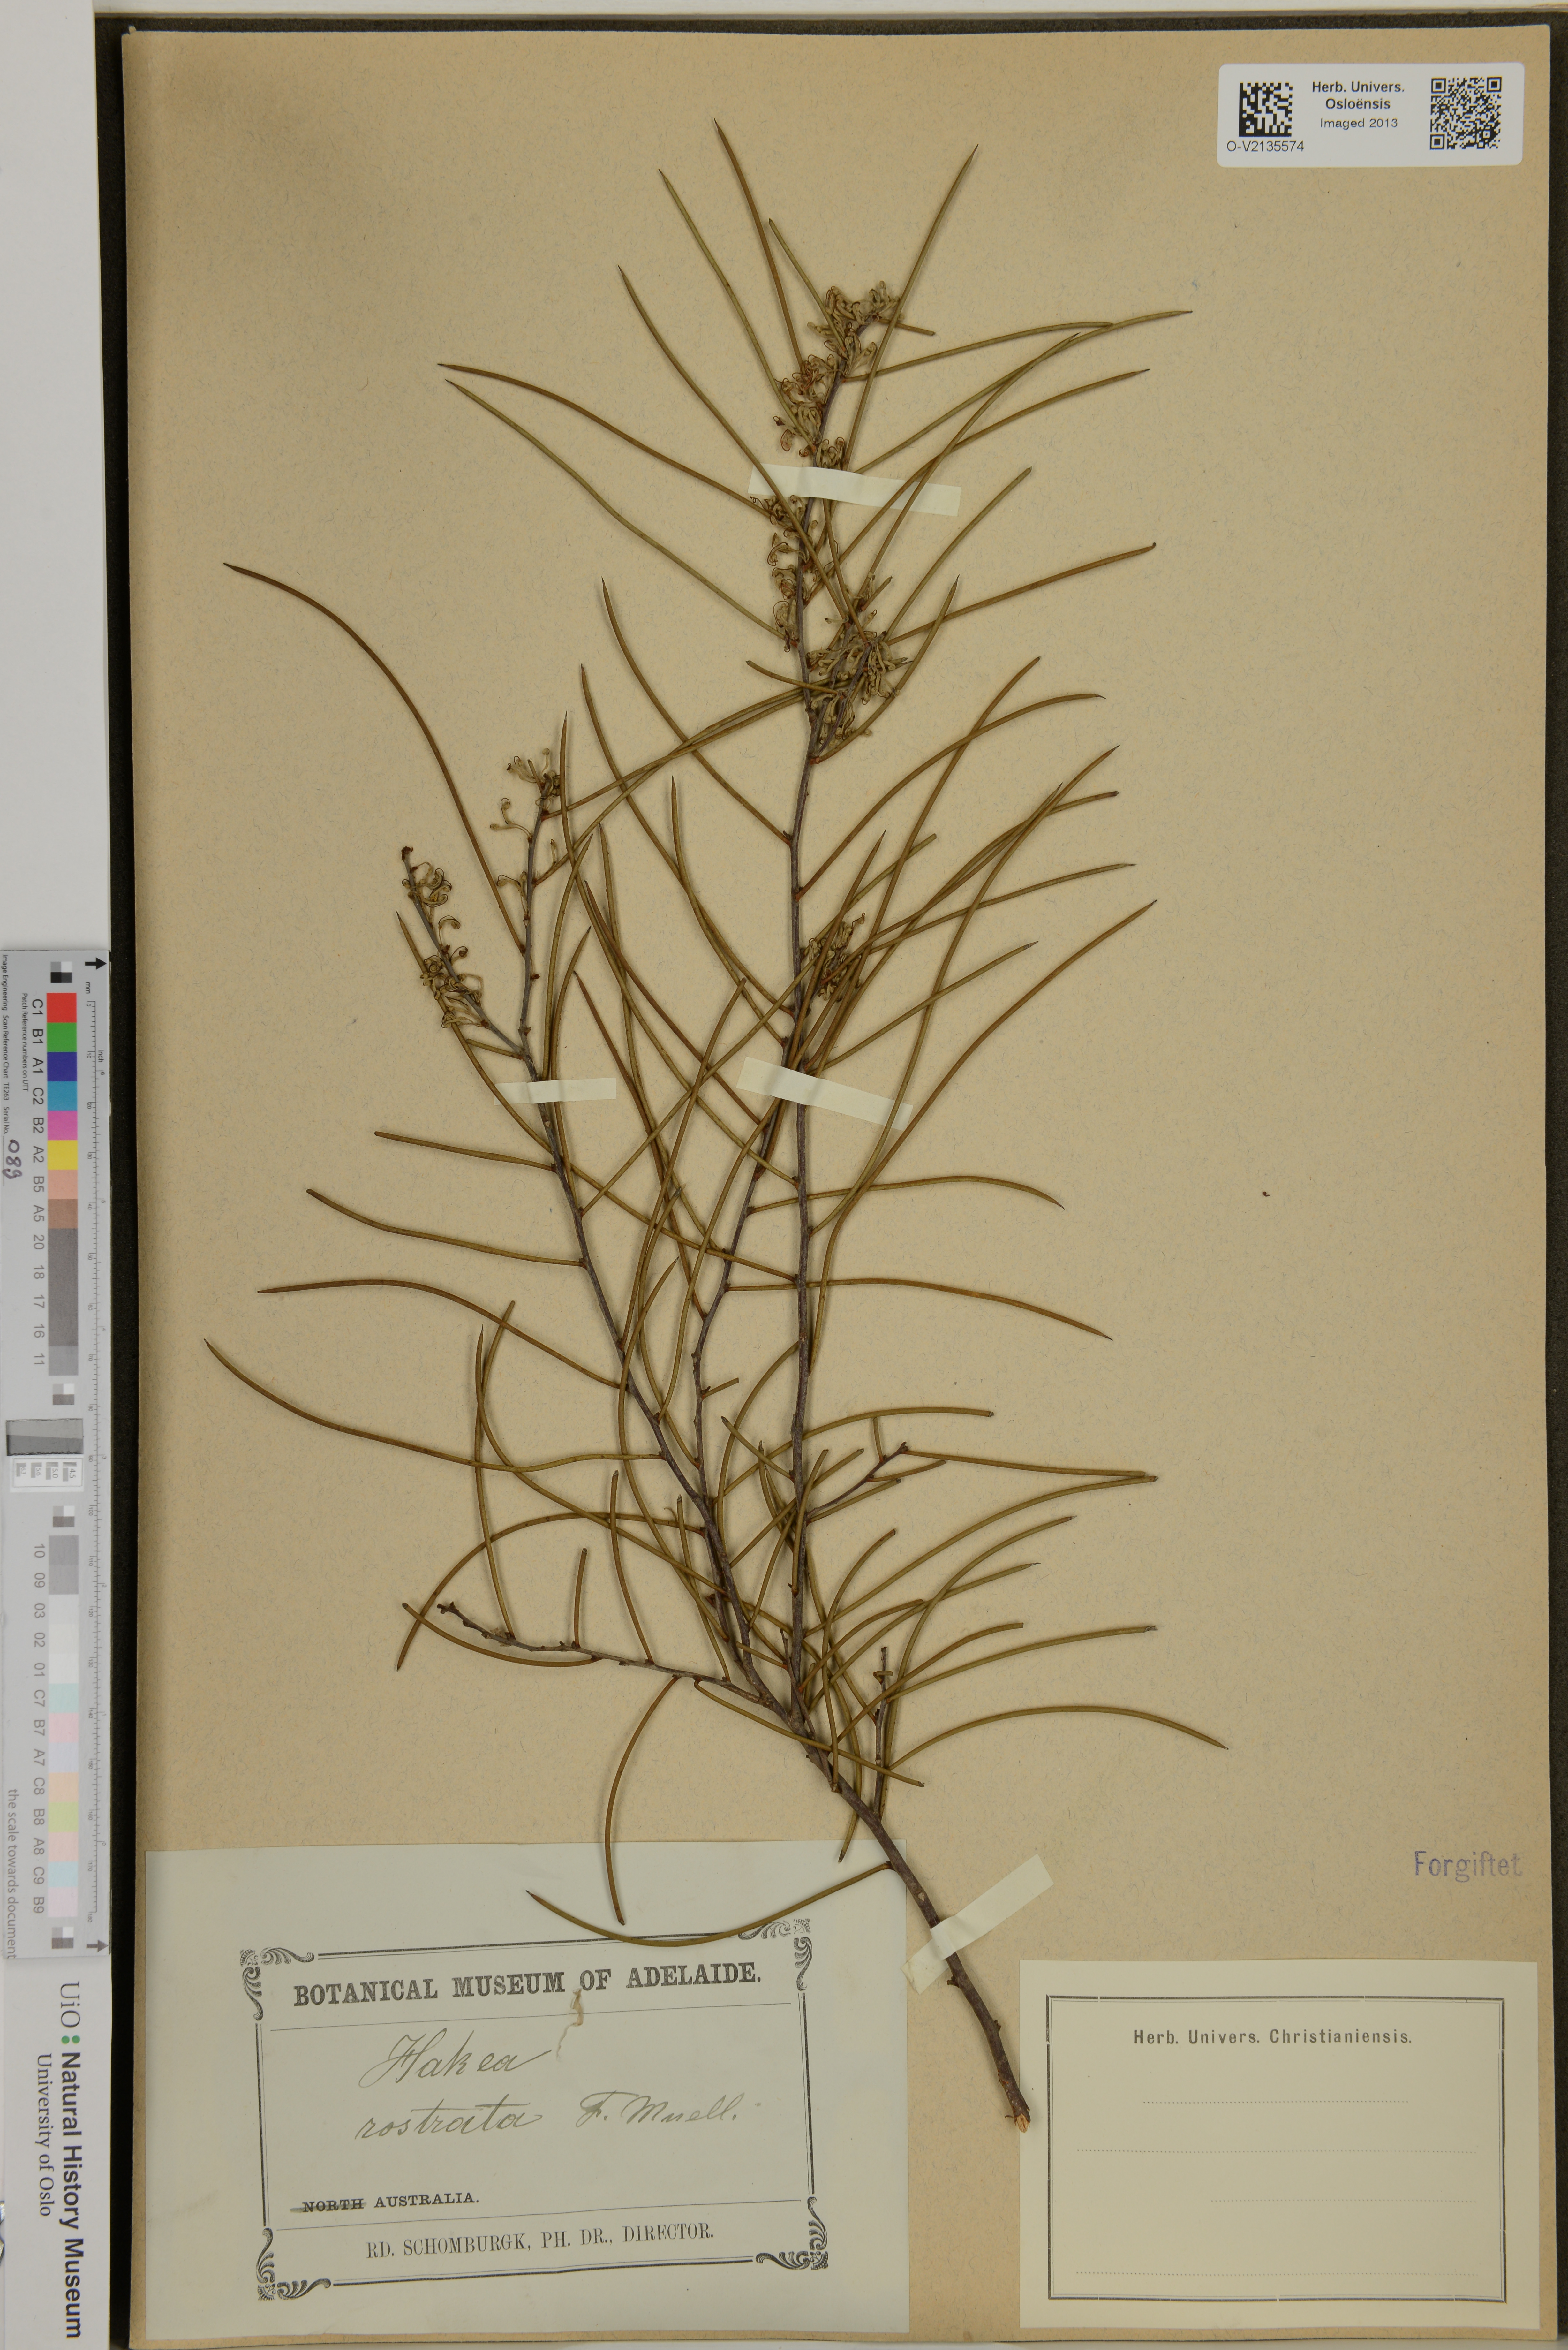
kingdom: Plantae
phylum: Tracheophyta
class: Magnoliopsida
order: Proteales
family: Proteaceae
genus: Hakea
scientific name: Hakea rostrata
